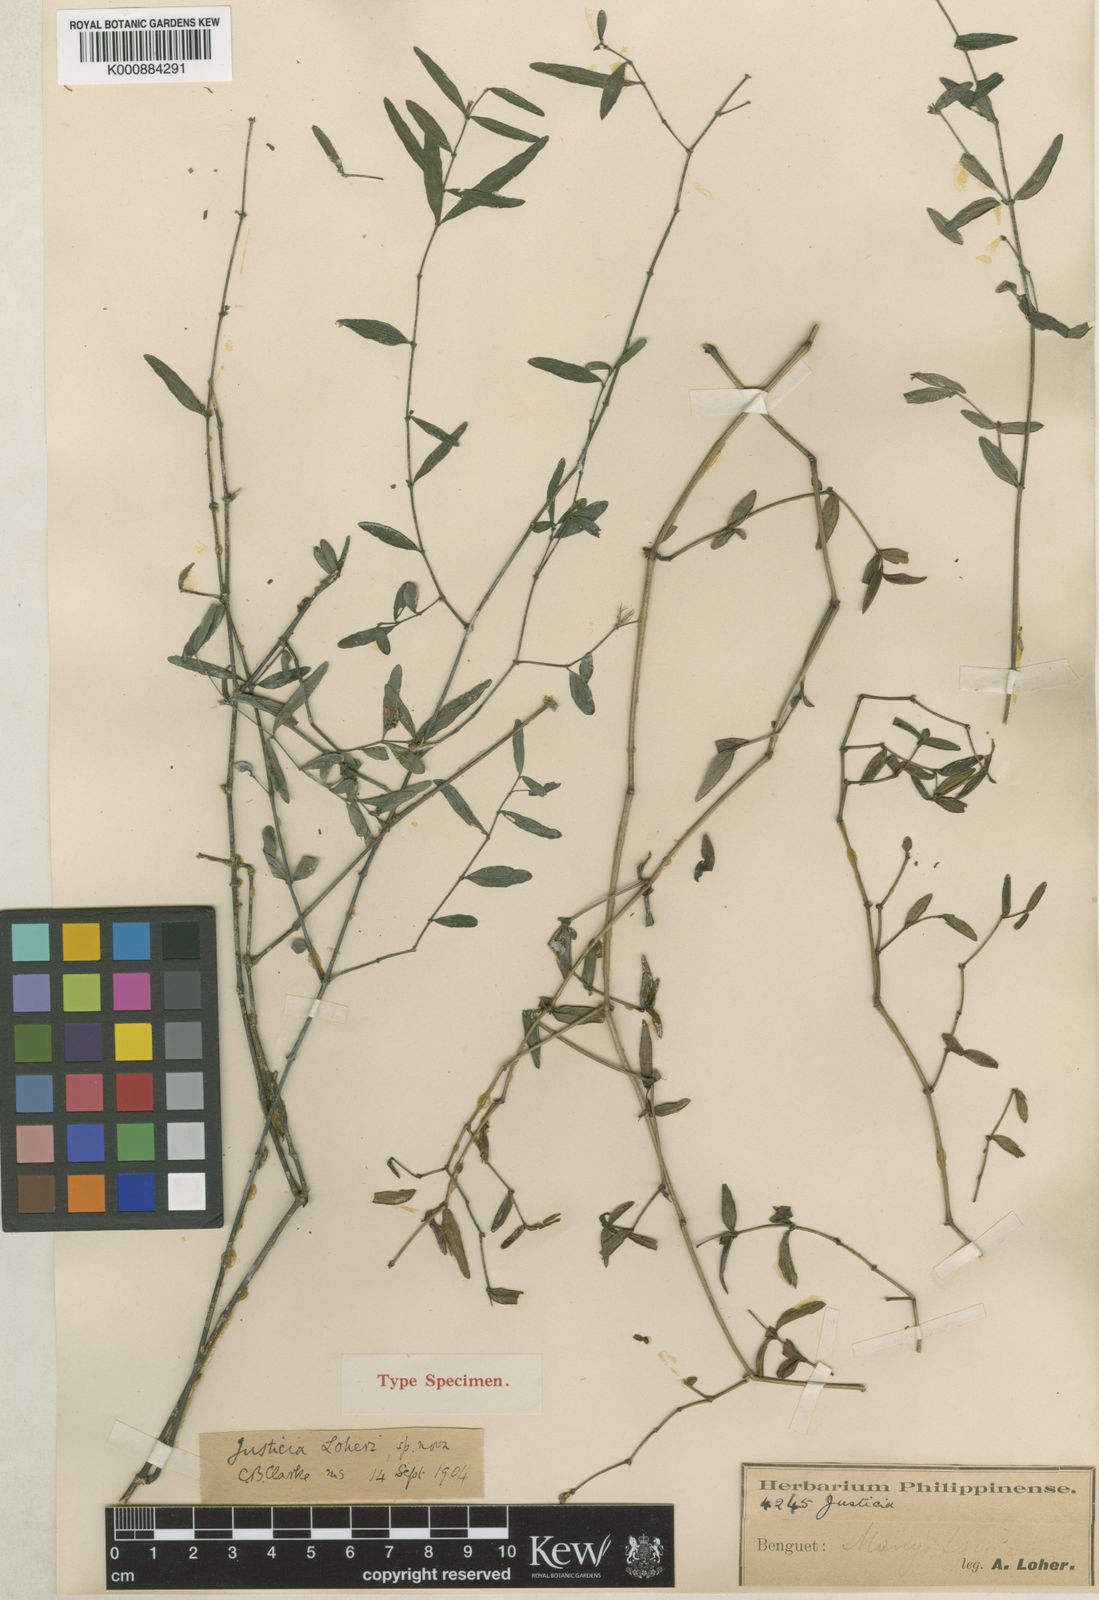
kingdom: Plantae
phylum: Tracheophyta
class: Magnoliopsida
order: Lamiales
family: Acanthaceae
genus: Justicia
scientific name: Justicia loheri
